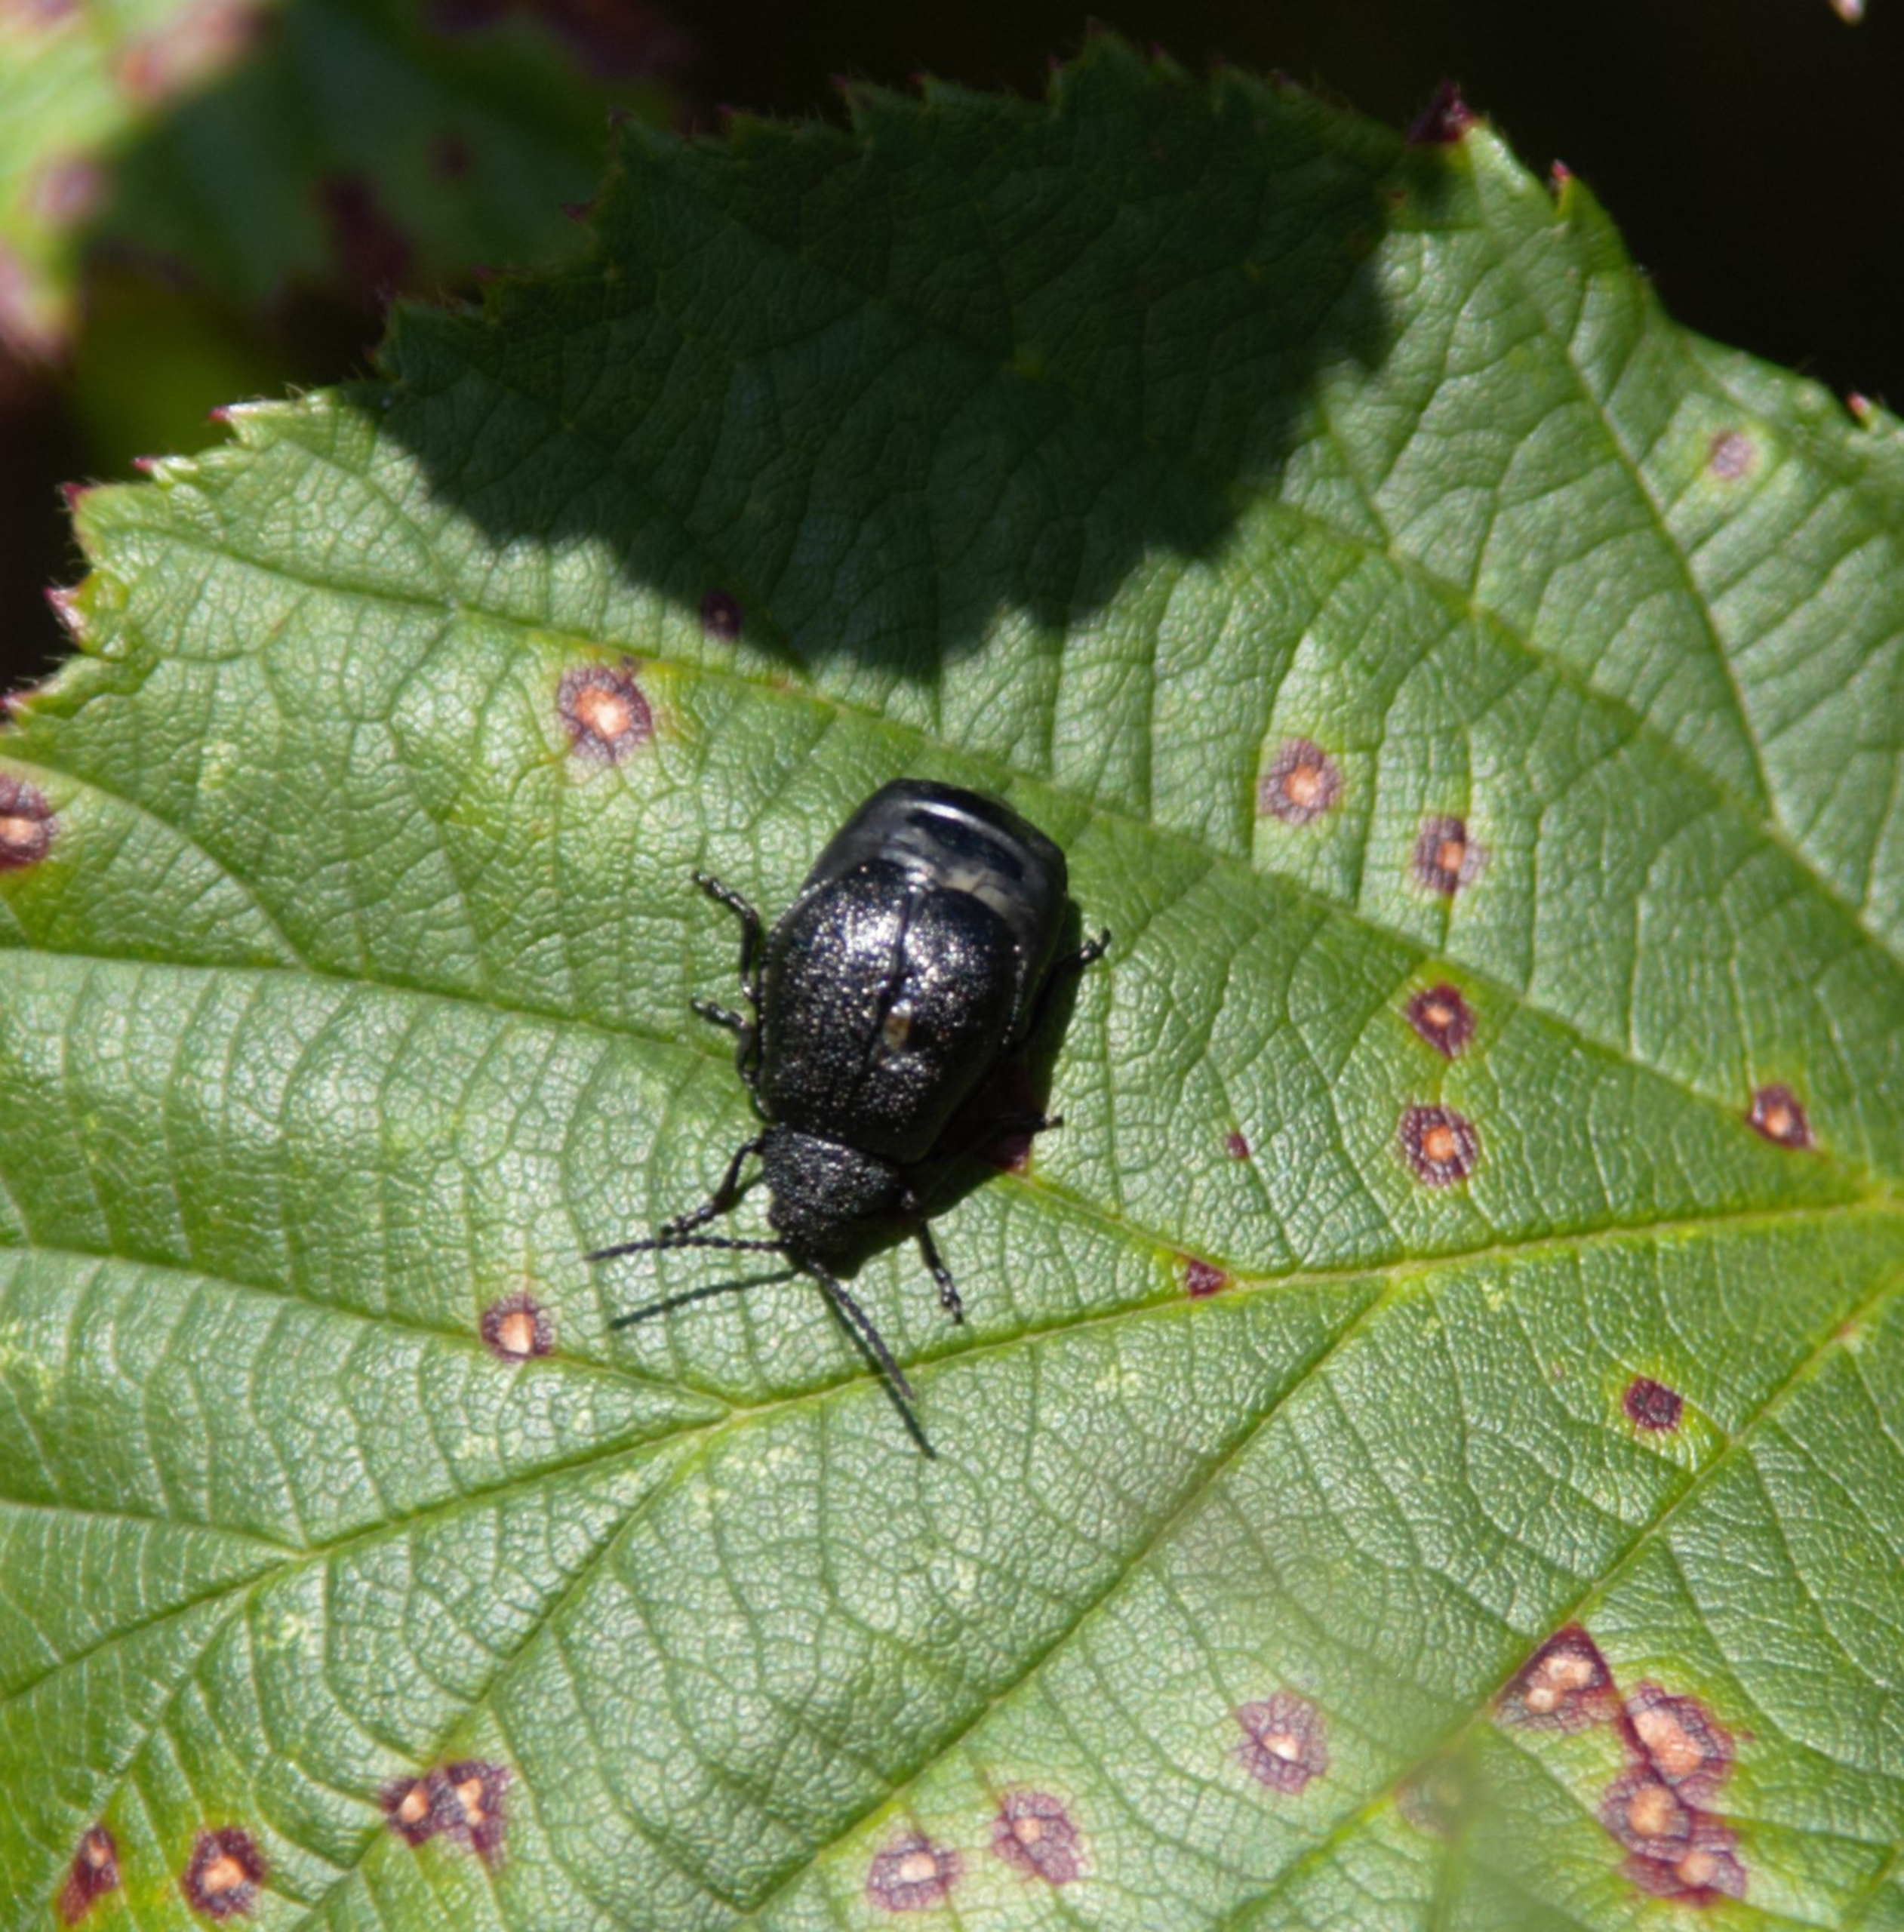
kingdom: Animalia
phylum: Arthropoda
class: Insecta
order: Coleoptera
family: Chrysomelidae
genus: Galeruca
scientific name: Galeruca tanaceti
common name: Rejnfanbladbille
